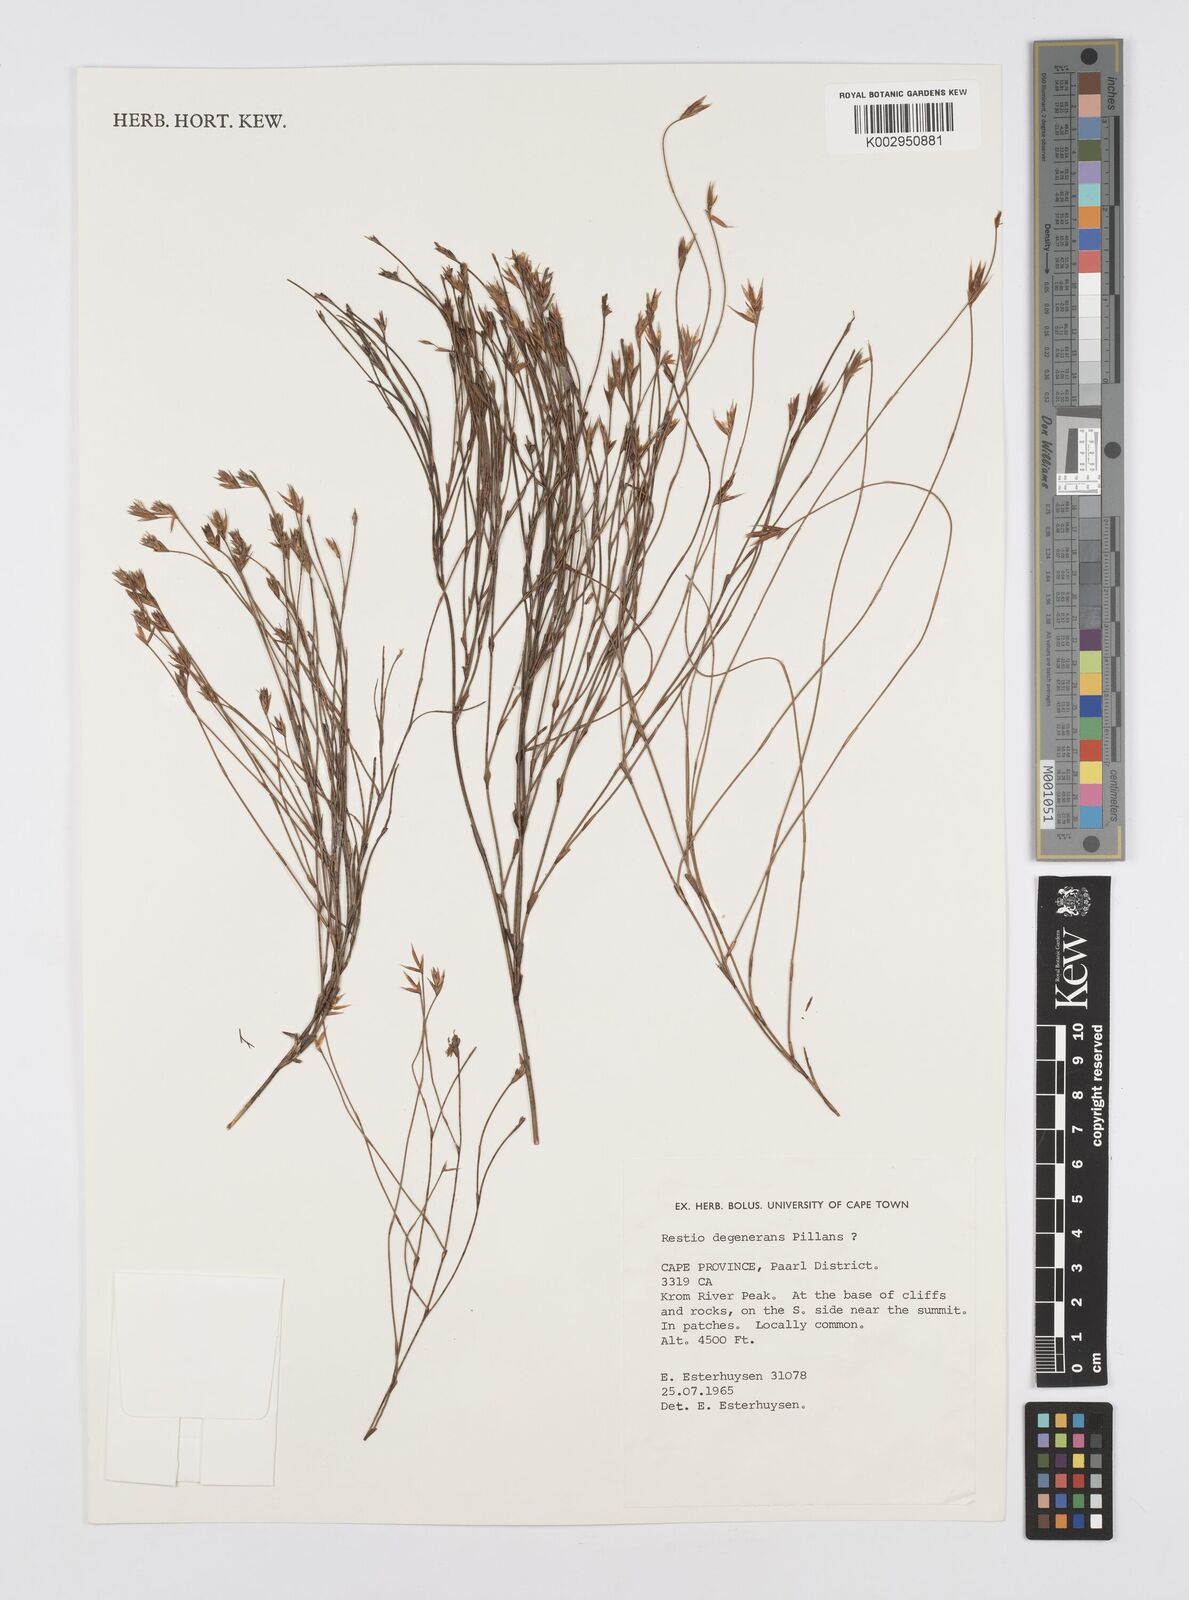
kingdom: Plantae
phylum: Tracheophyta
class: Liliopsida
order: Poales
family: Restionaceae
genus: Restio
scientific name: Restio degenerans
